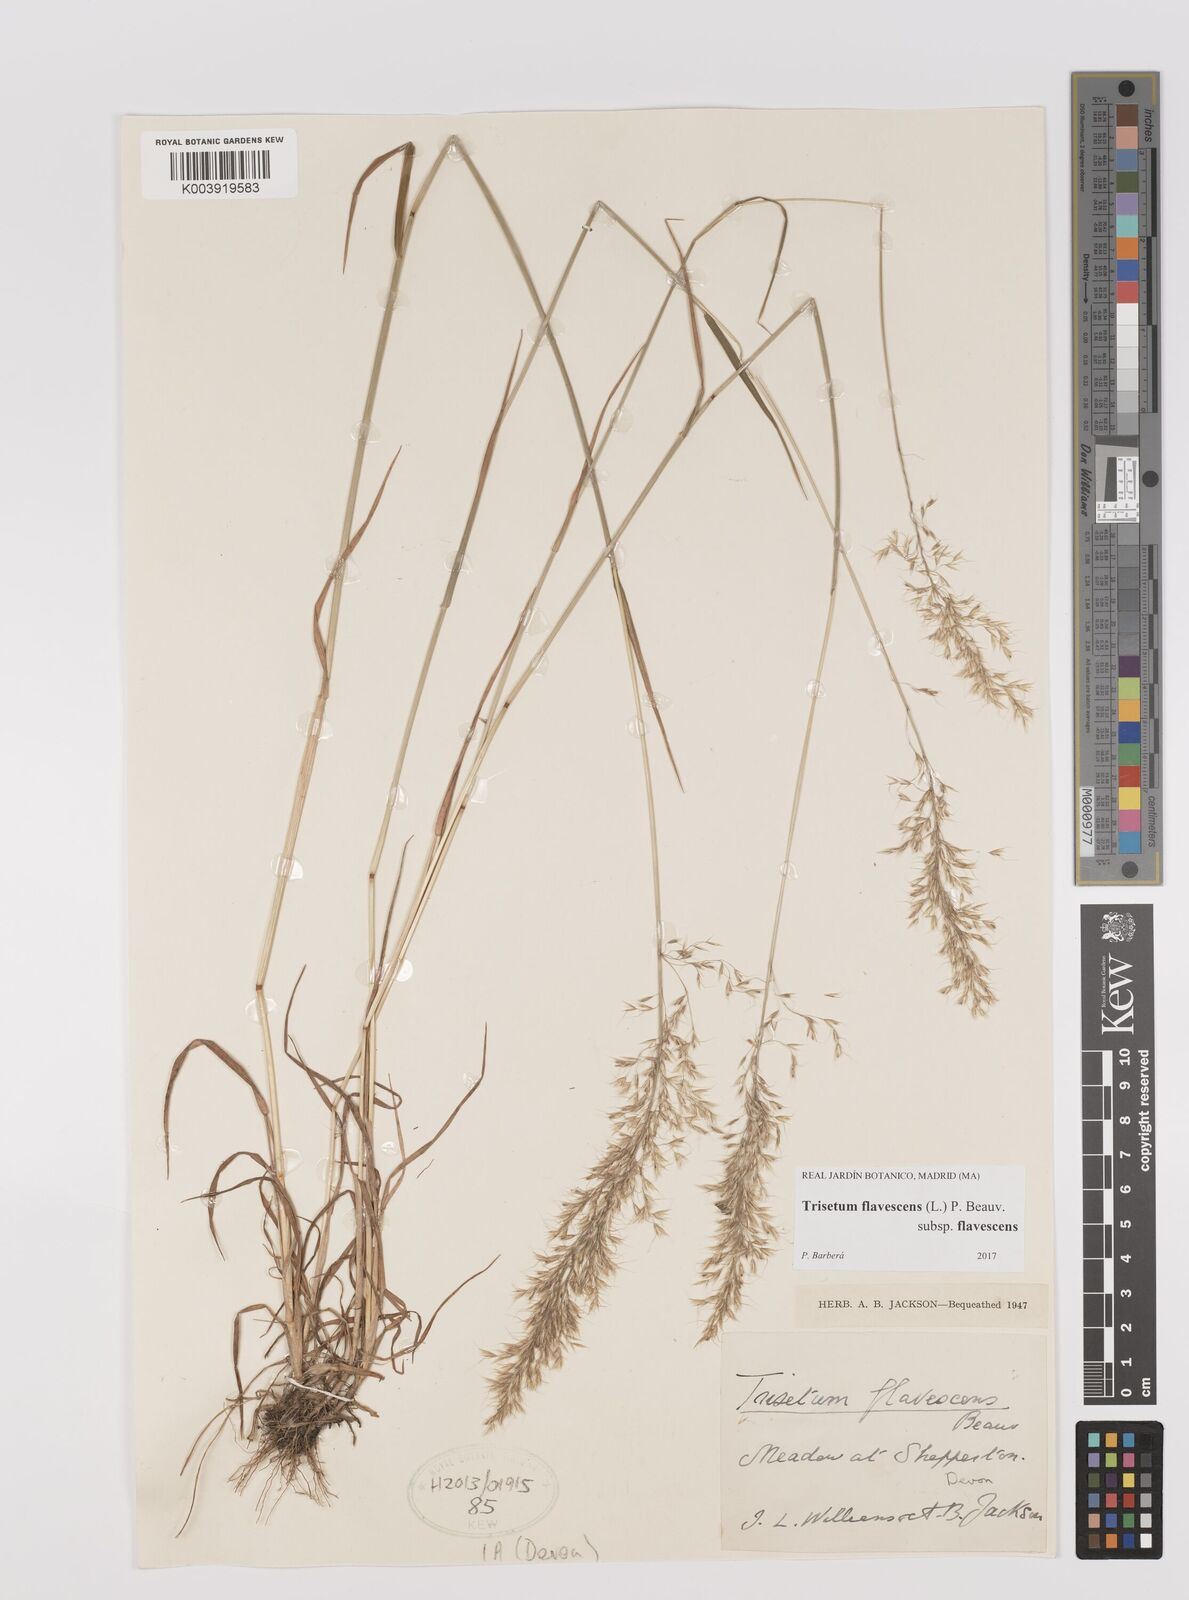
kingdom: Plantae
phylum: Tracheophyta
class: Liliopsida
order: Poales
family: Poaceae
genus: Trisetum
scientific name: Trisetum flavescens
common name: Yellow oat-grass
